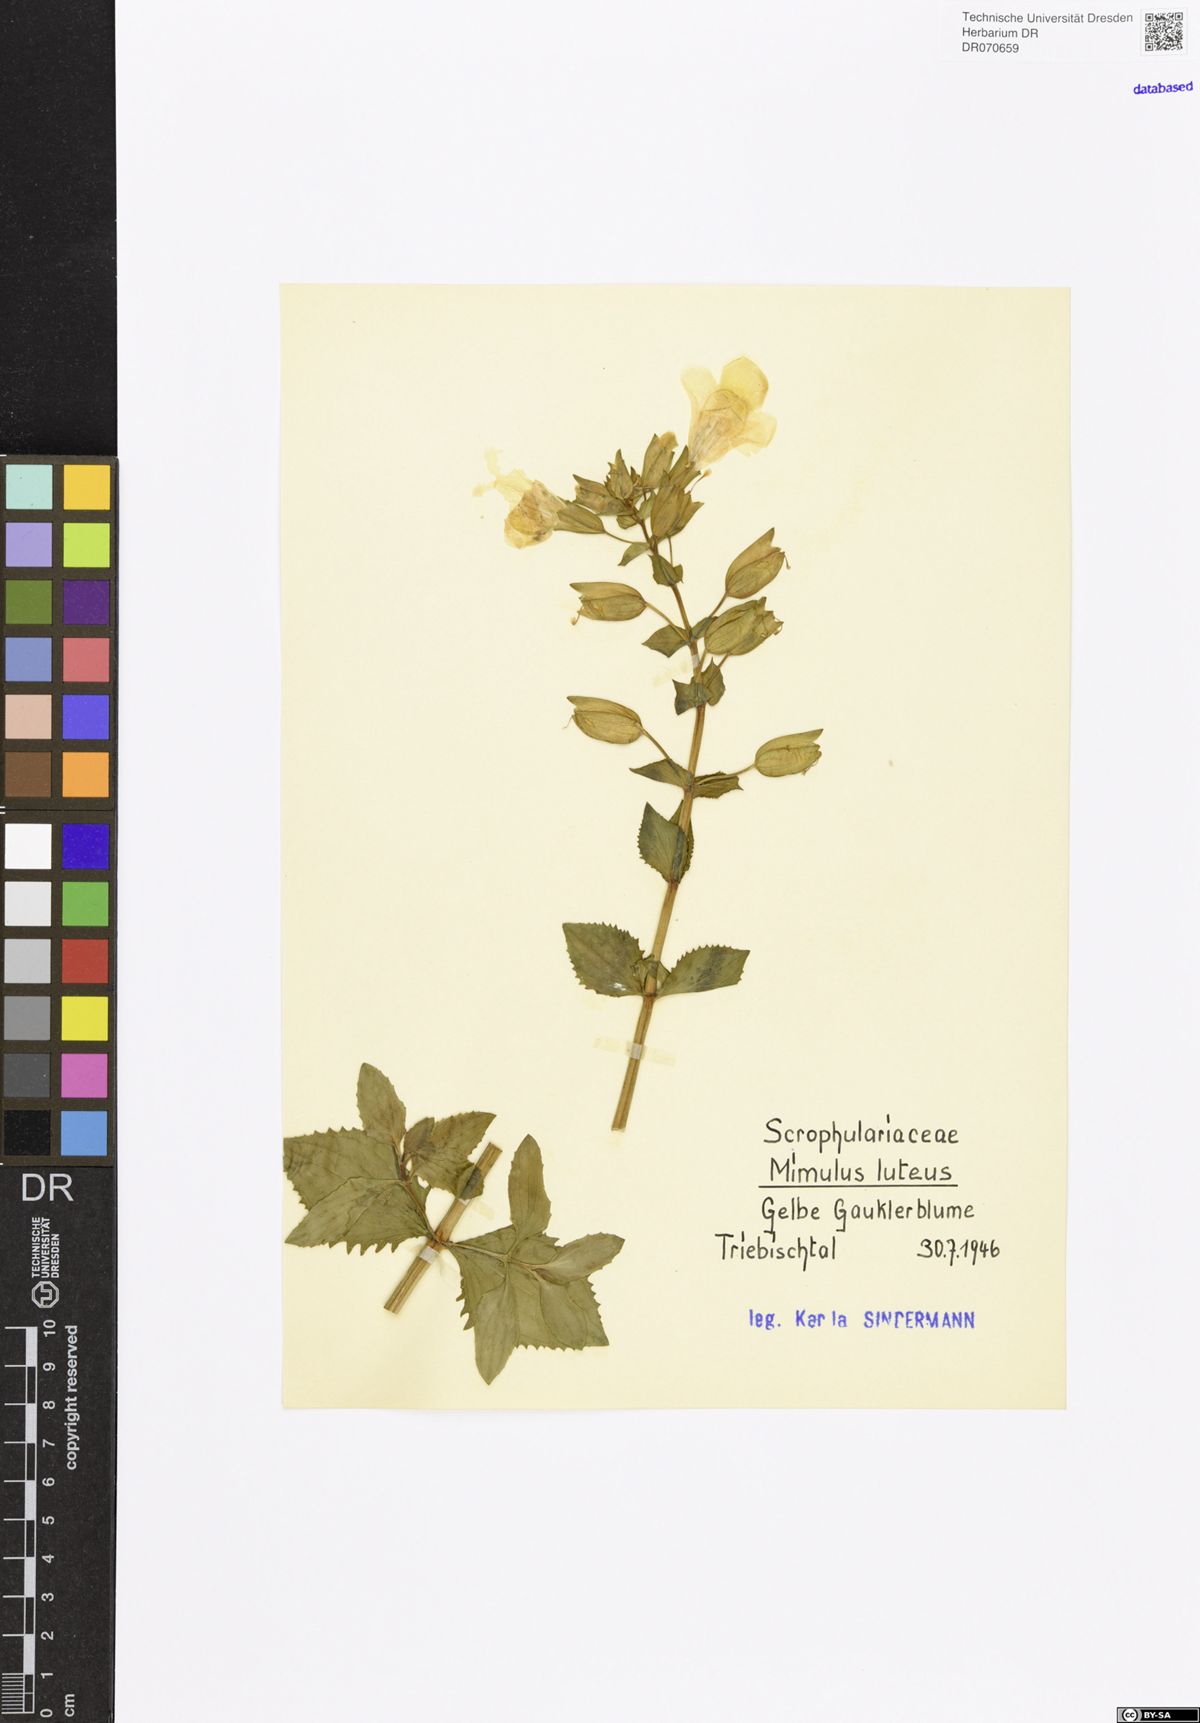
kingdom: Plantae
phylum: Tracheophyta
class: Magnoliopsida
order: Lamiales
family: Phrymaceae
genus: Erythranthe
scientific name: Erythranthe lutea
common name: Yellow monkey-flower
